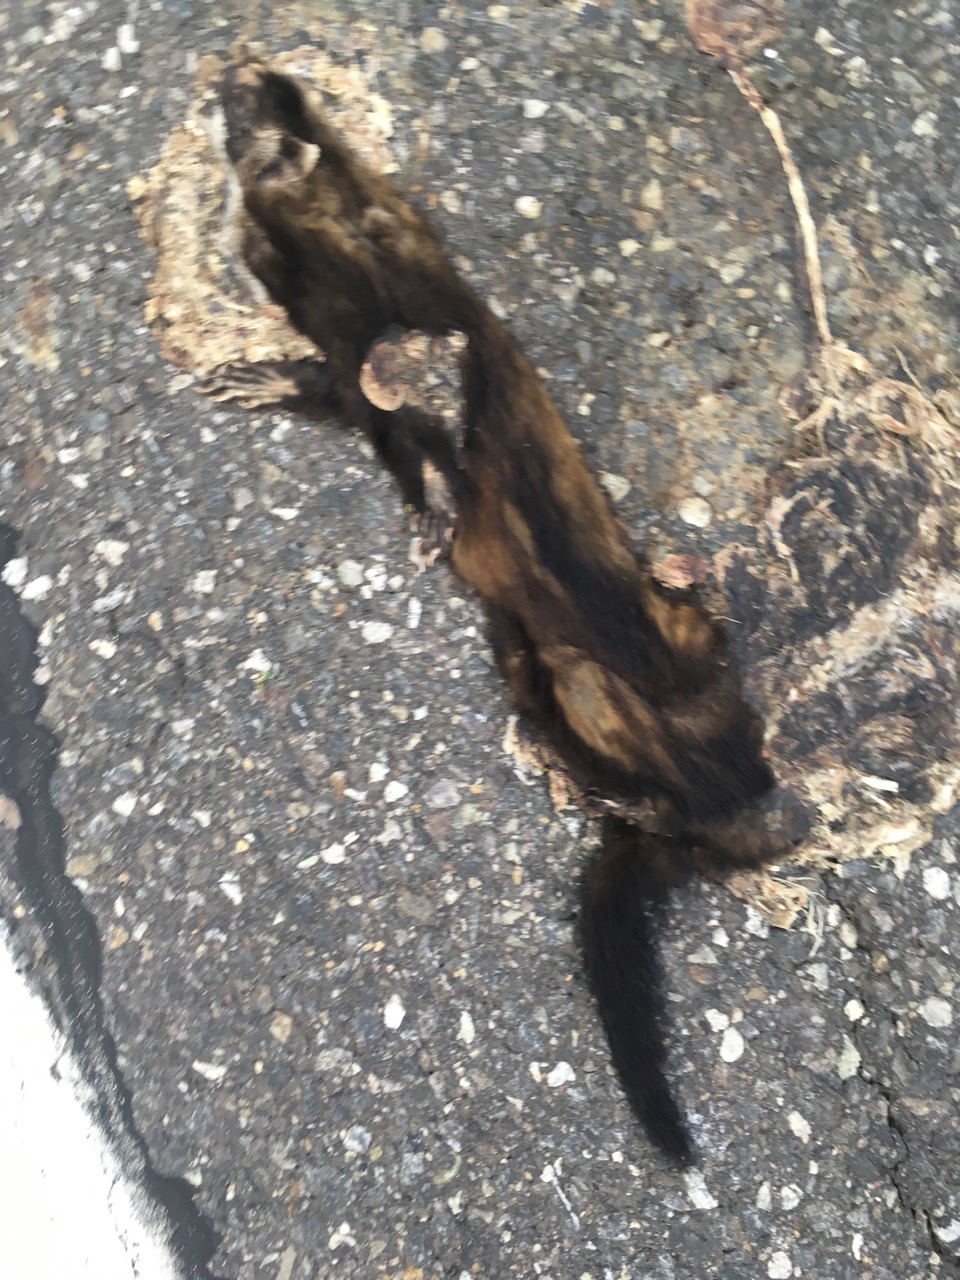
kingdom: Animalia
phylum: Chordata
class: Mammalia
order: Carnivora
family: Mustelidae
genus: Martes
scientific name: Martes foina
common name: Beech marten
